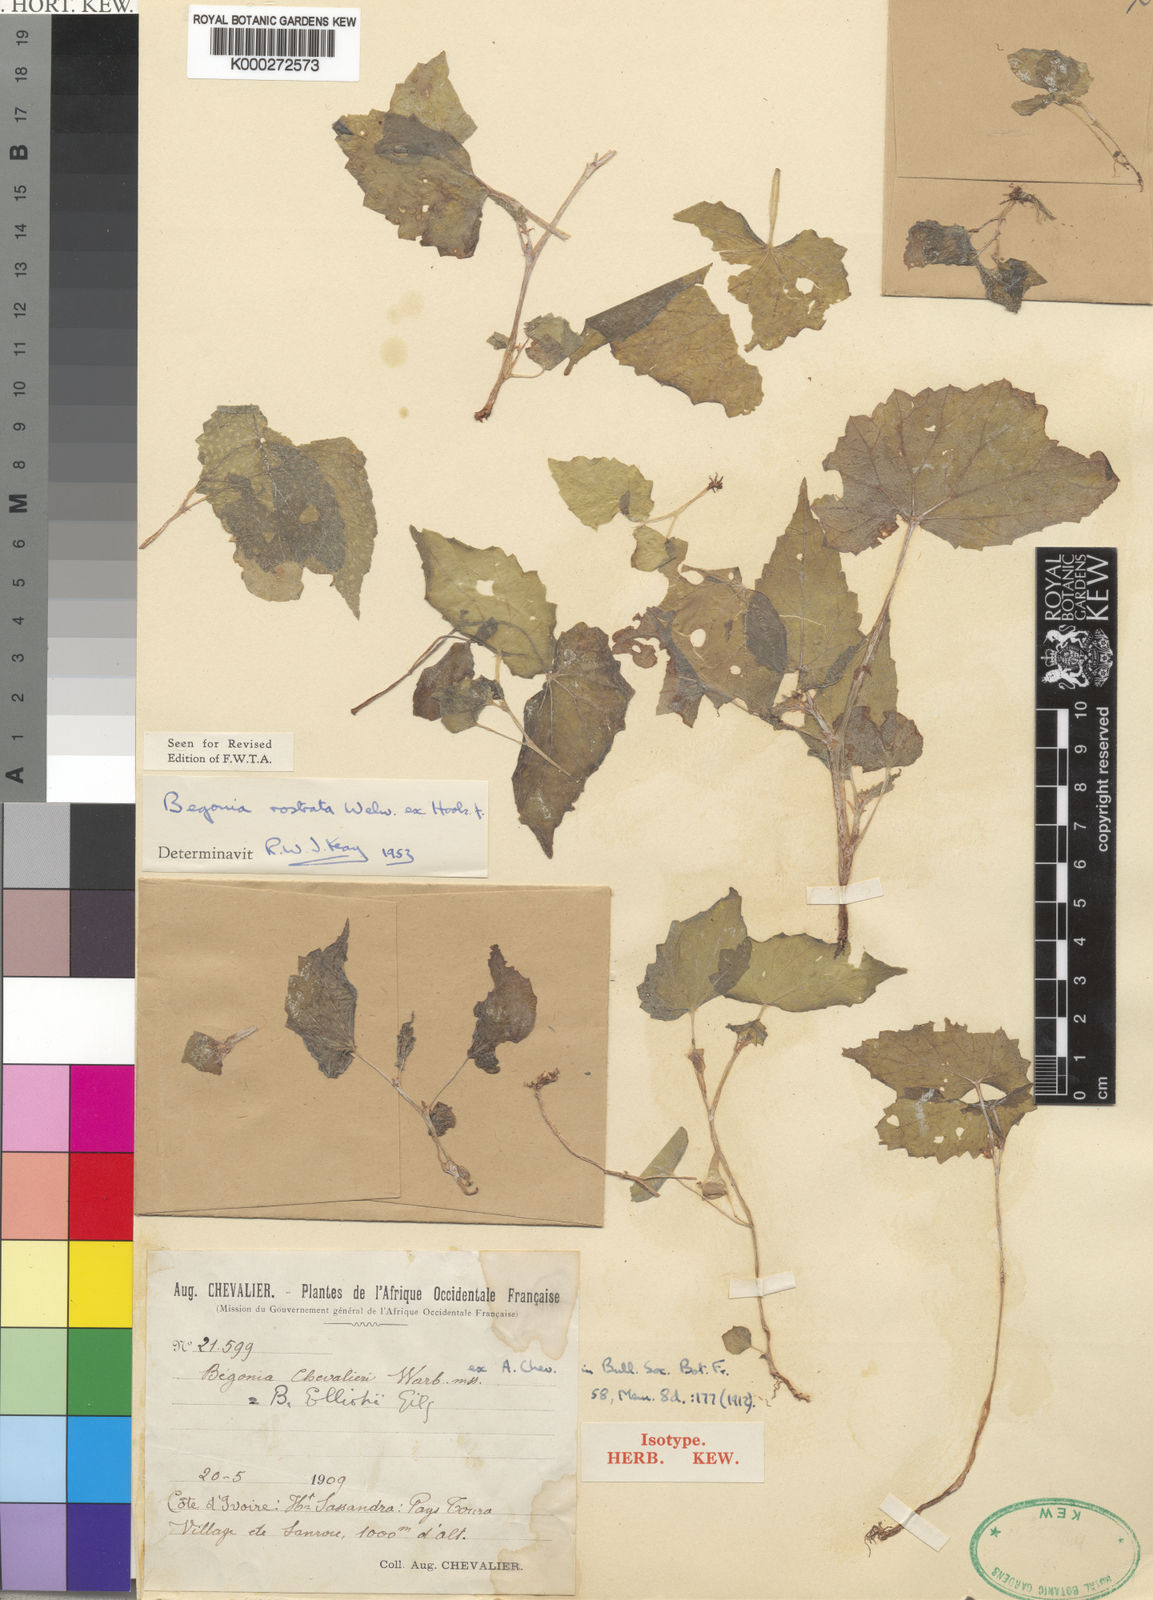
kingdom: Plantae
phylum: Tracheophyta
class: Magnoliopsida
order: Cucurbitales
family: Begoniaceae
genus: Begonia
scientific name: Begonia rostrata
